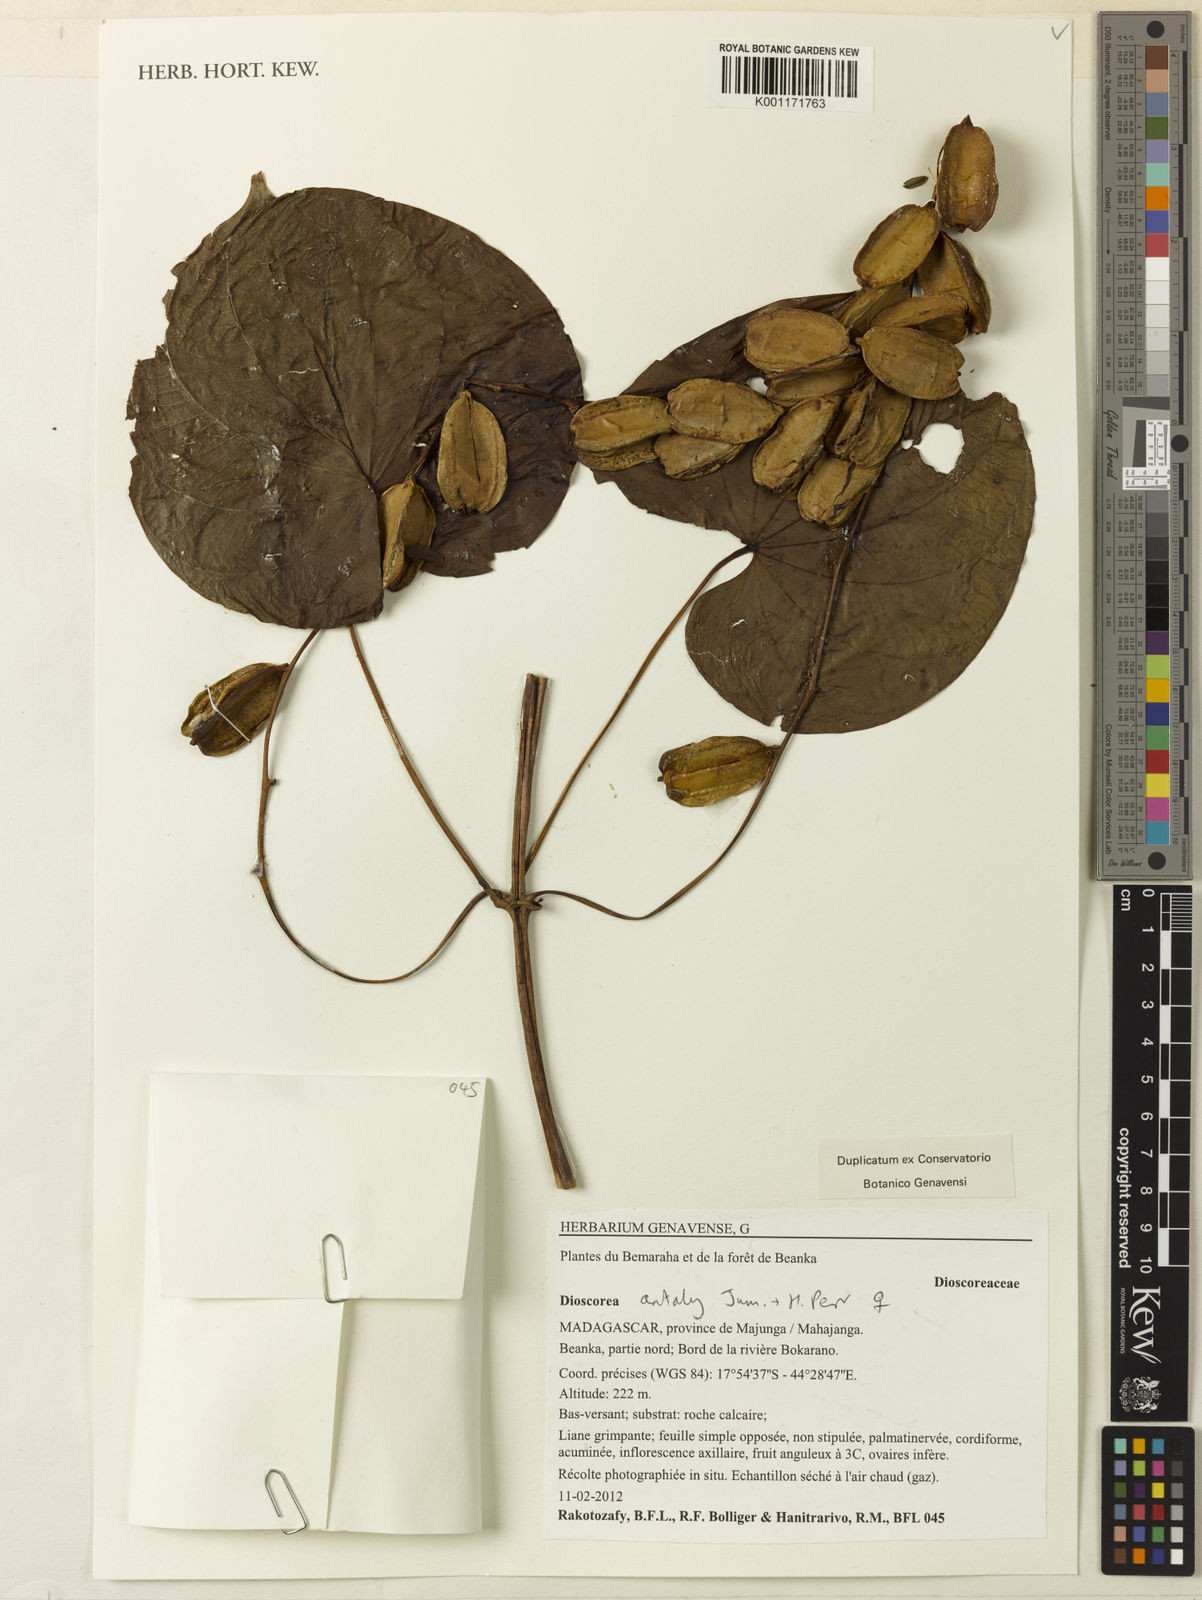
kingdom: Plantae
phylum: Tracheophyta
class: Liliopsida
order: Dioscoreales
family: Dioscoreaceae
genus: Dioscorea
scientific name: Dioscorea antaly
